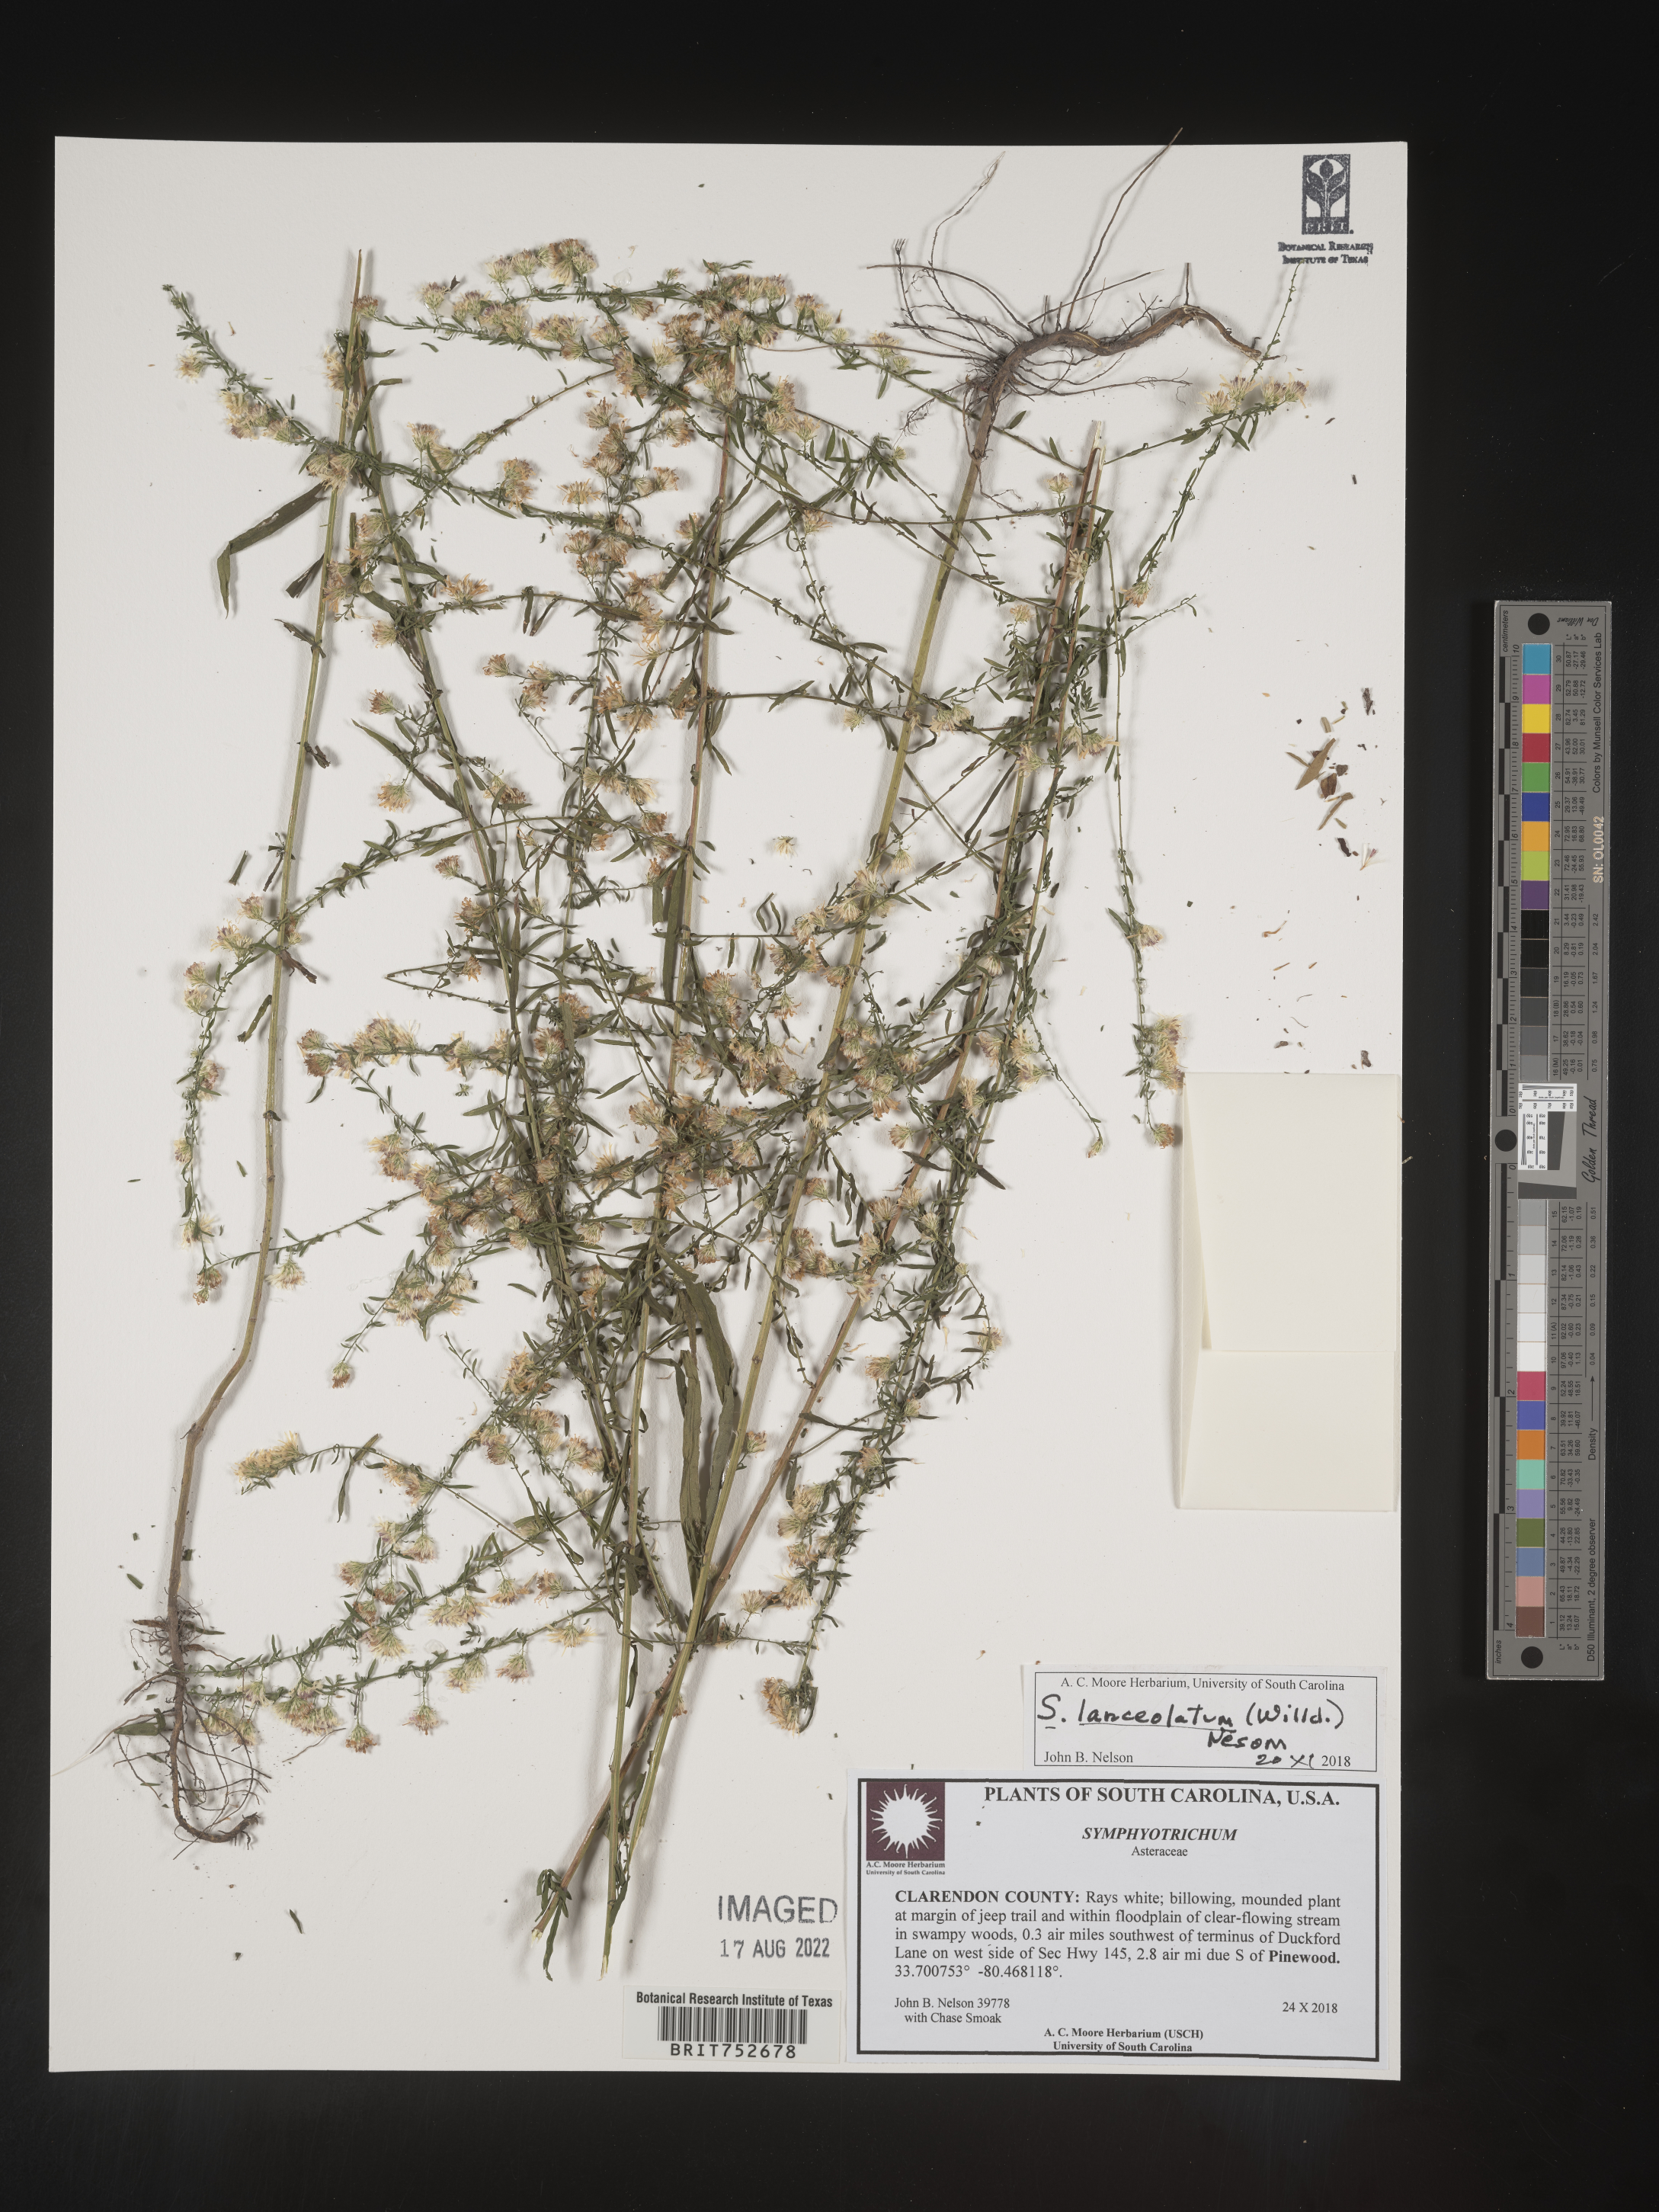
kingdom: Plantae
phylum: Tracheophyta
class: Magnoliopsida
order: Asterales
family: Asteraceae
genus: Symphyotrichum
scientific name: Symphyotrichum lanceolatum
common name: Panicled aster
